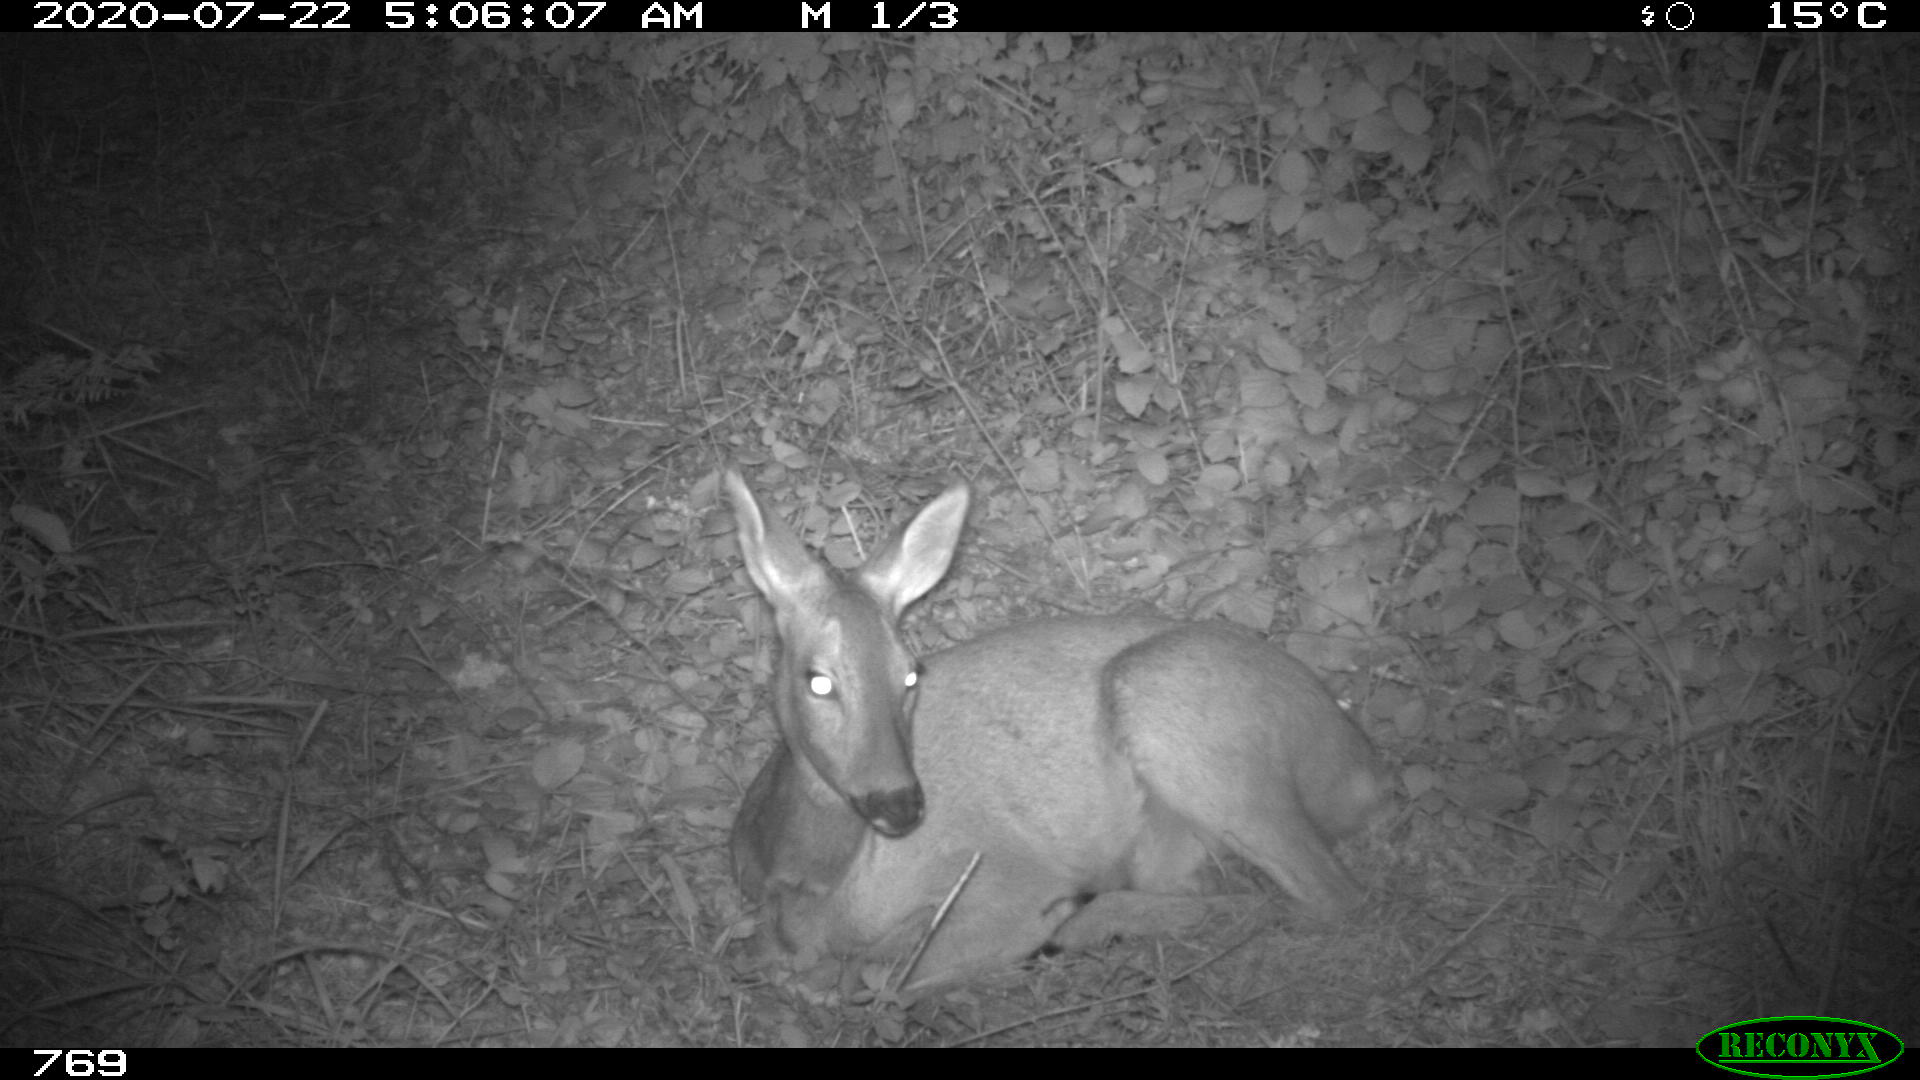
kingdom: Animalia
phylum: Chordata
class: Mammalia
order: Artiodactyla
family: Cervidae
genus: Capreolus
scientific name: Capreolus capreolus
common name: Western roe deer
